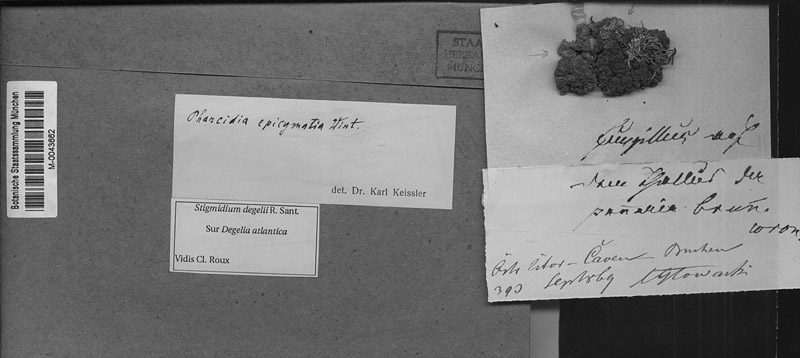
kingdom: Fungi
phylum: Ascomycota
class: Lecanoromycetes
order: Peltigerales
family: Pannariaceae
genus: Pectenia
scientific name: Pectenia atlantica
